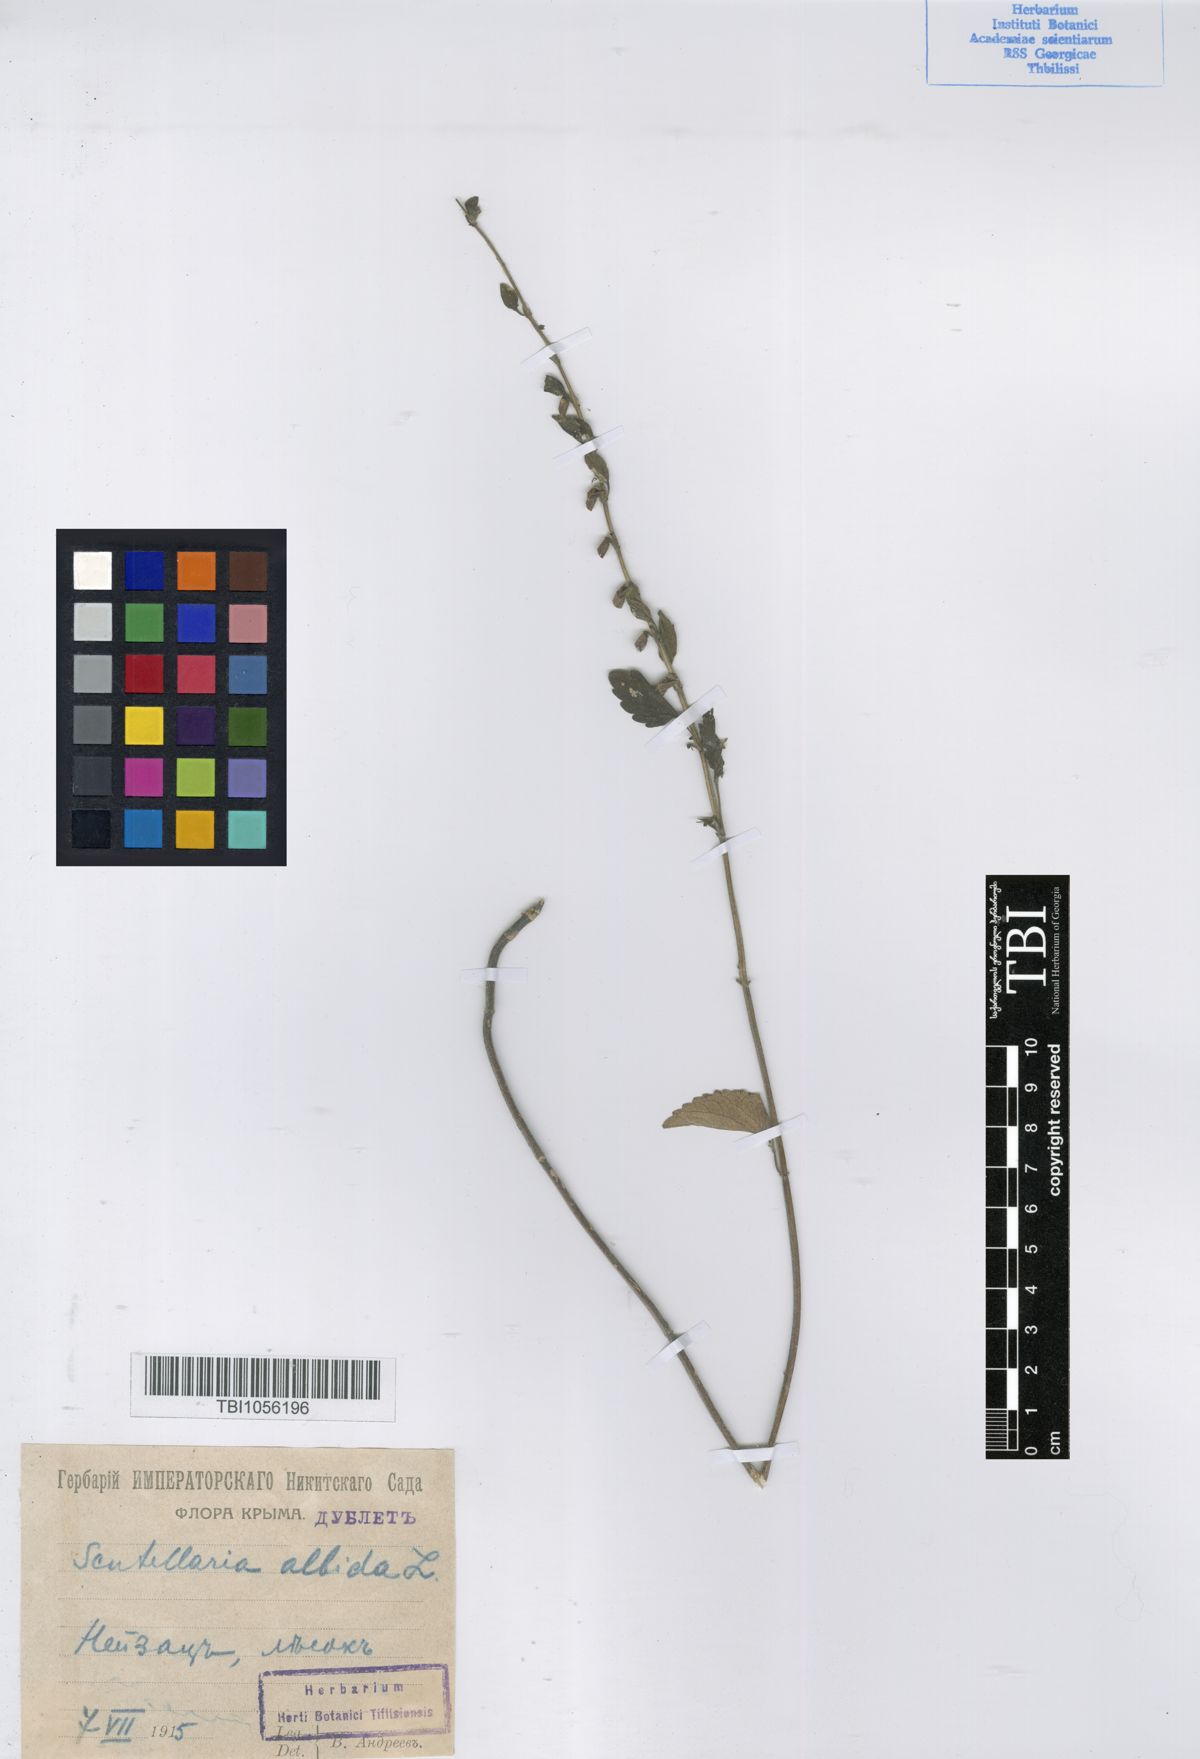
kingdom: Plantae
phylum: Tracheophyta
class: Magnoliopsida
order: Lamiales
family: Lamiaceae
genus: Scutellaria
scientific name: Scutellaria albida
